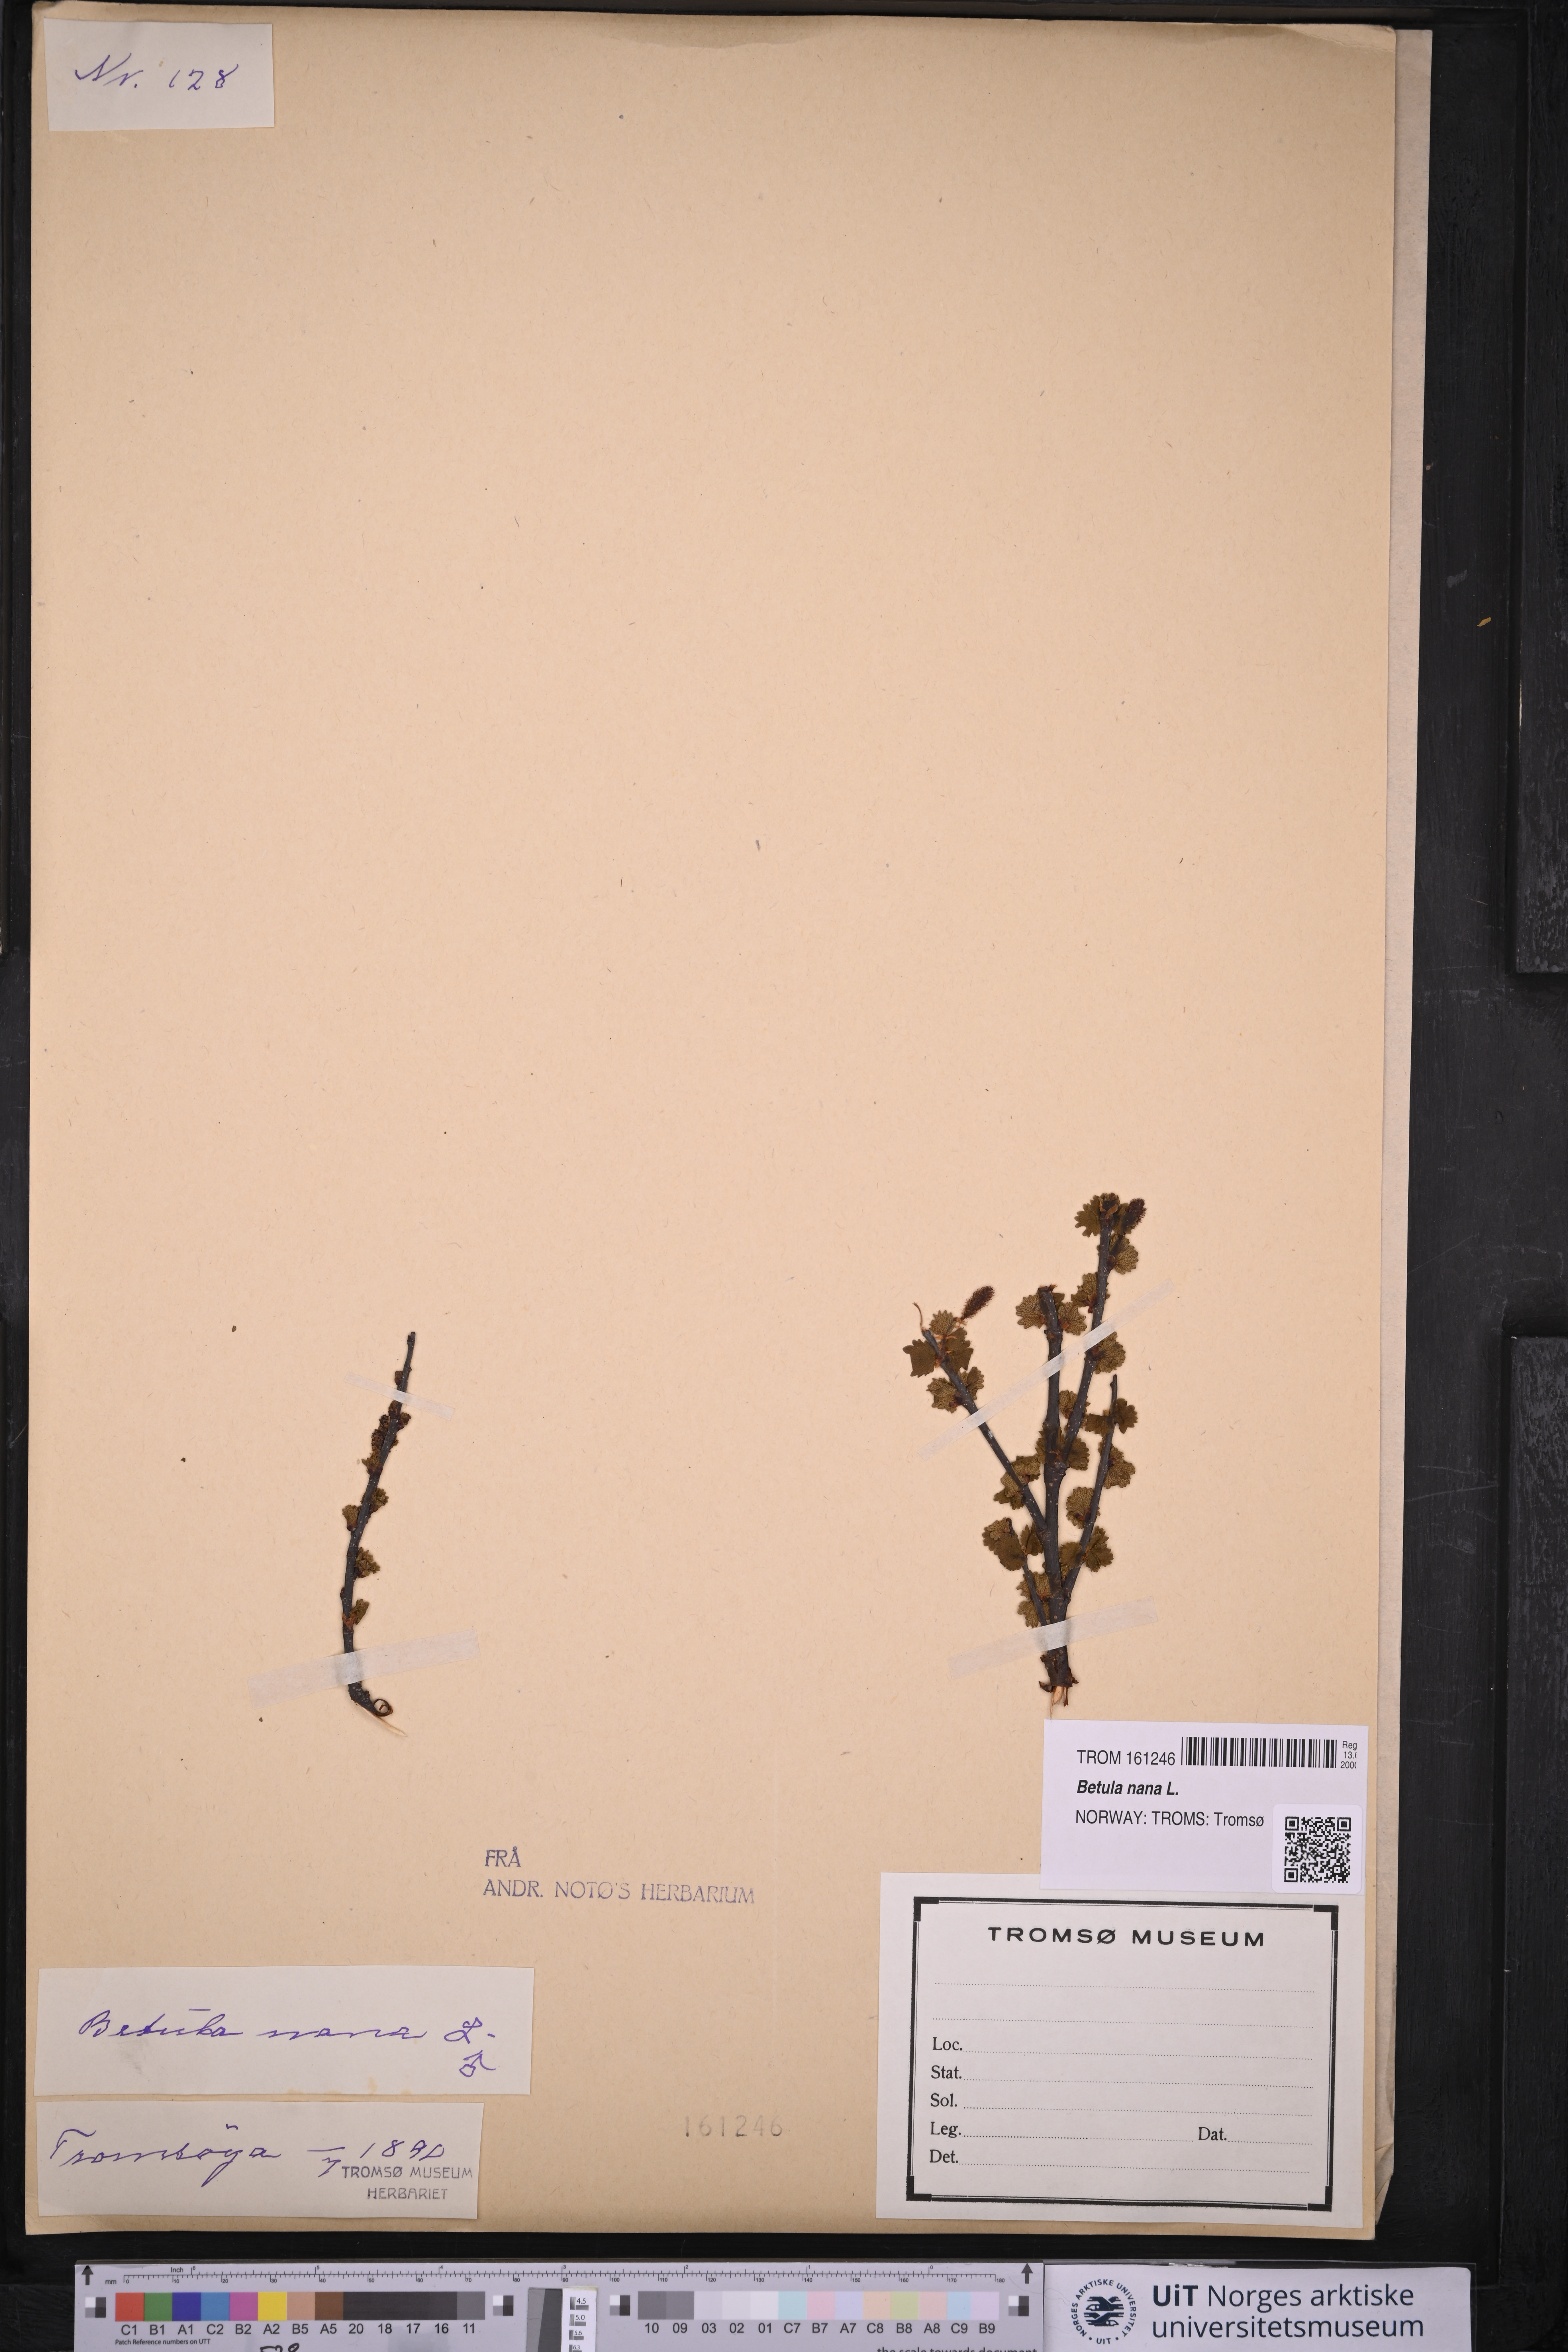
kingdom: Plantae
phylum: Tracheophyta
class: Magnoliopsida
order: Fagales
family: Betulaceae
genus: Betula
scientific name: Betula nana
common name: Arctic dwarf birch
